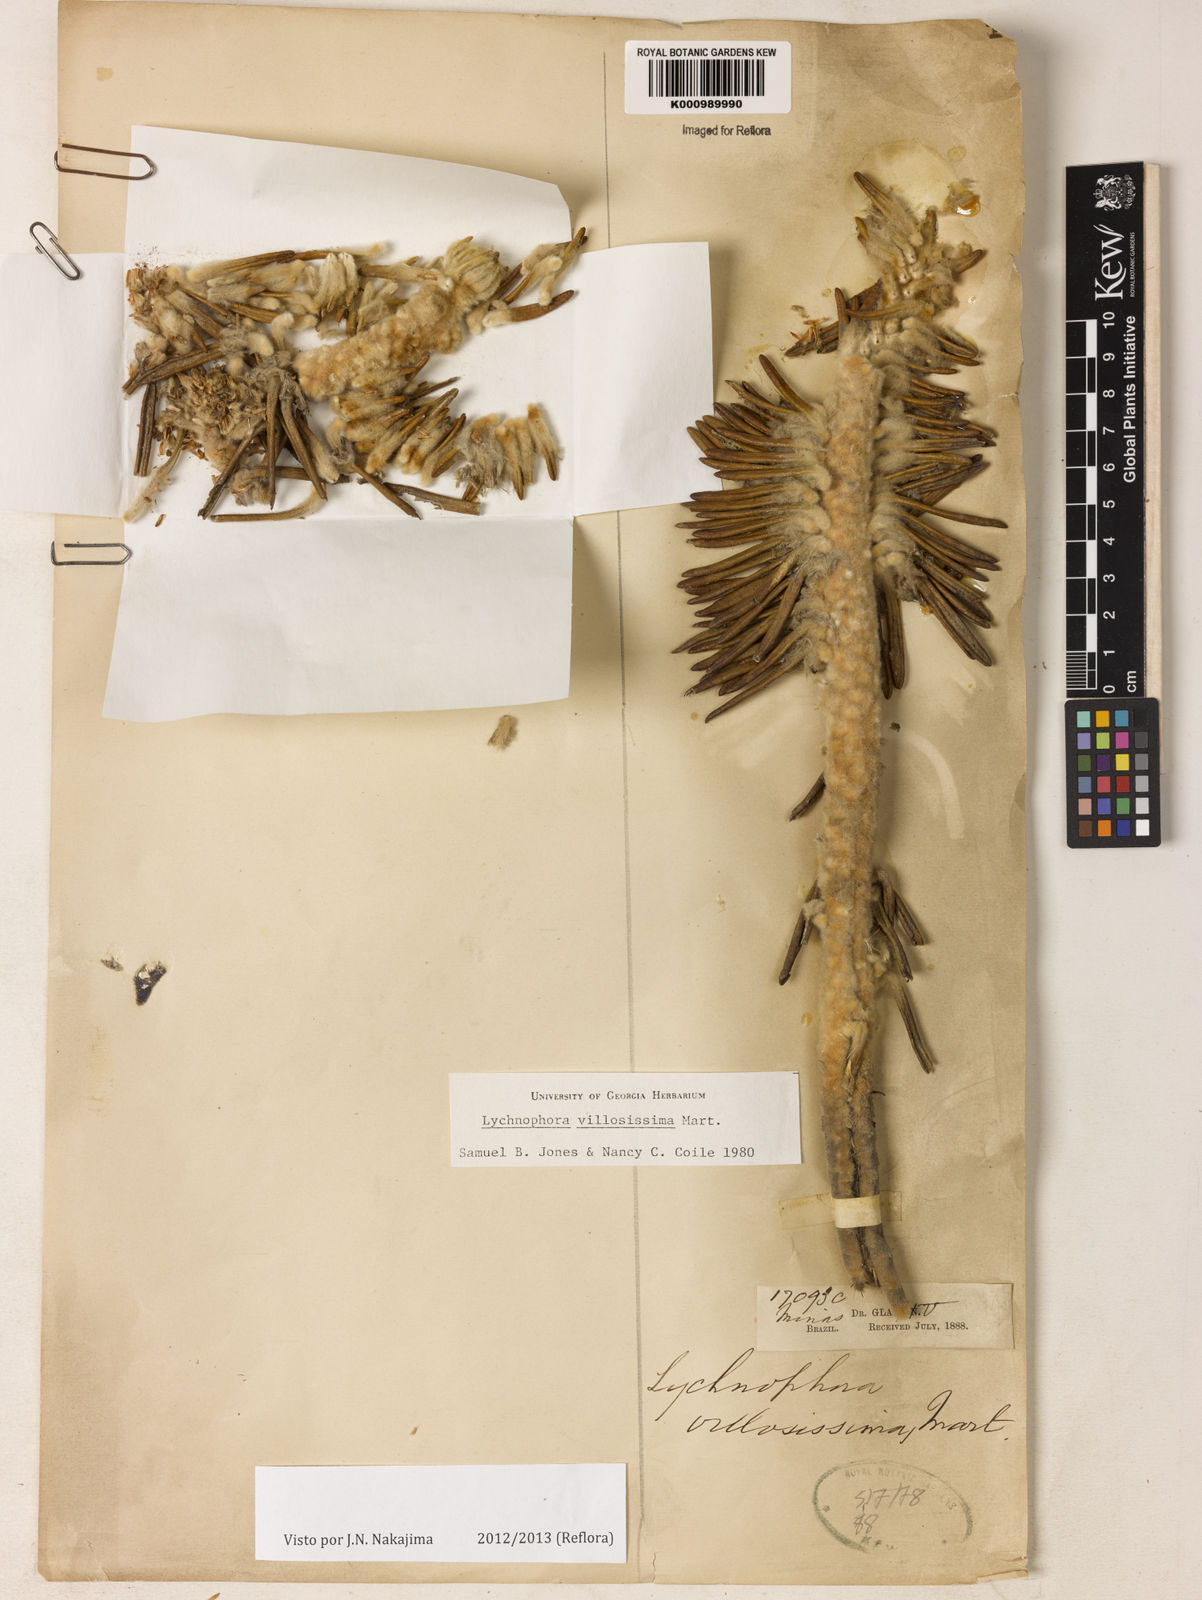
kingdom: Plantae
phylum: Tracheophyta
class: Magnoliopsida
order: Asterales
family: Asteraceae
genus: Lychnophora
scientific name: Lychnophora villosissima
